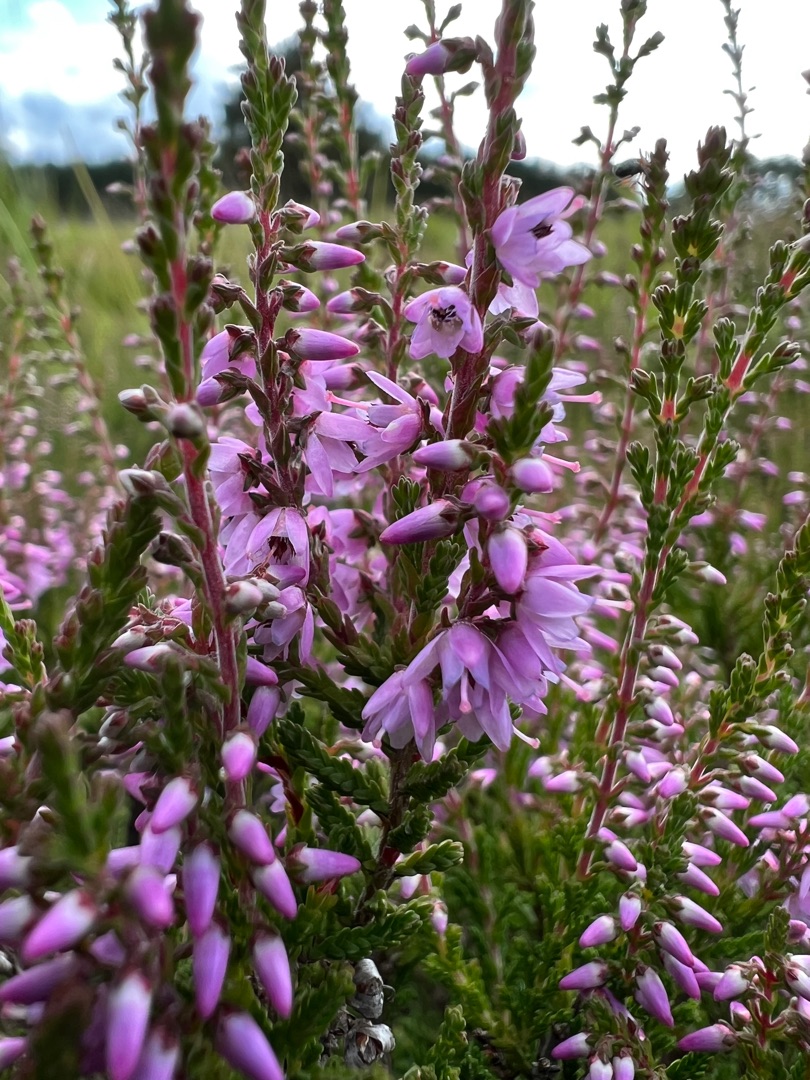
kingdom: Plantae
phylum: Tracheophyta
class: Magnoliopsida
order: Ericales
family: Ericaceae
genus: Calluna
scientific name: Calluna vulgaris
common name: Hedelyng
